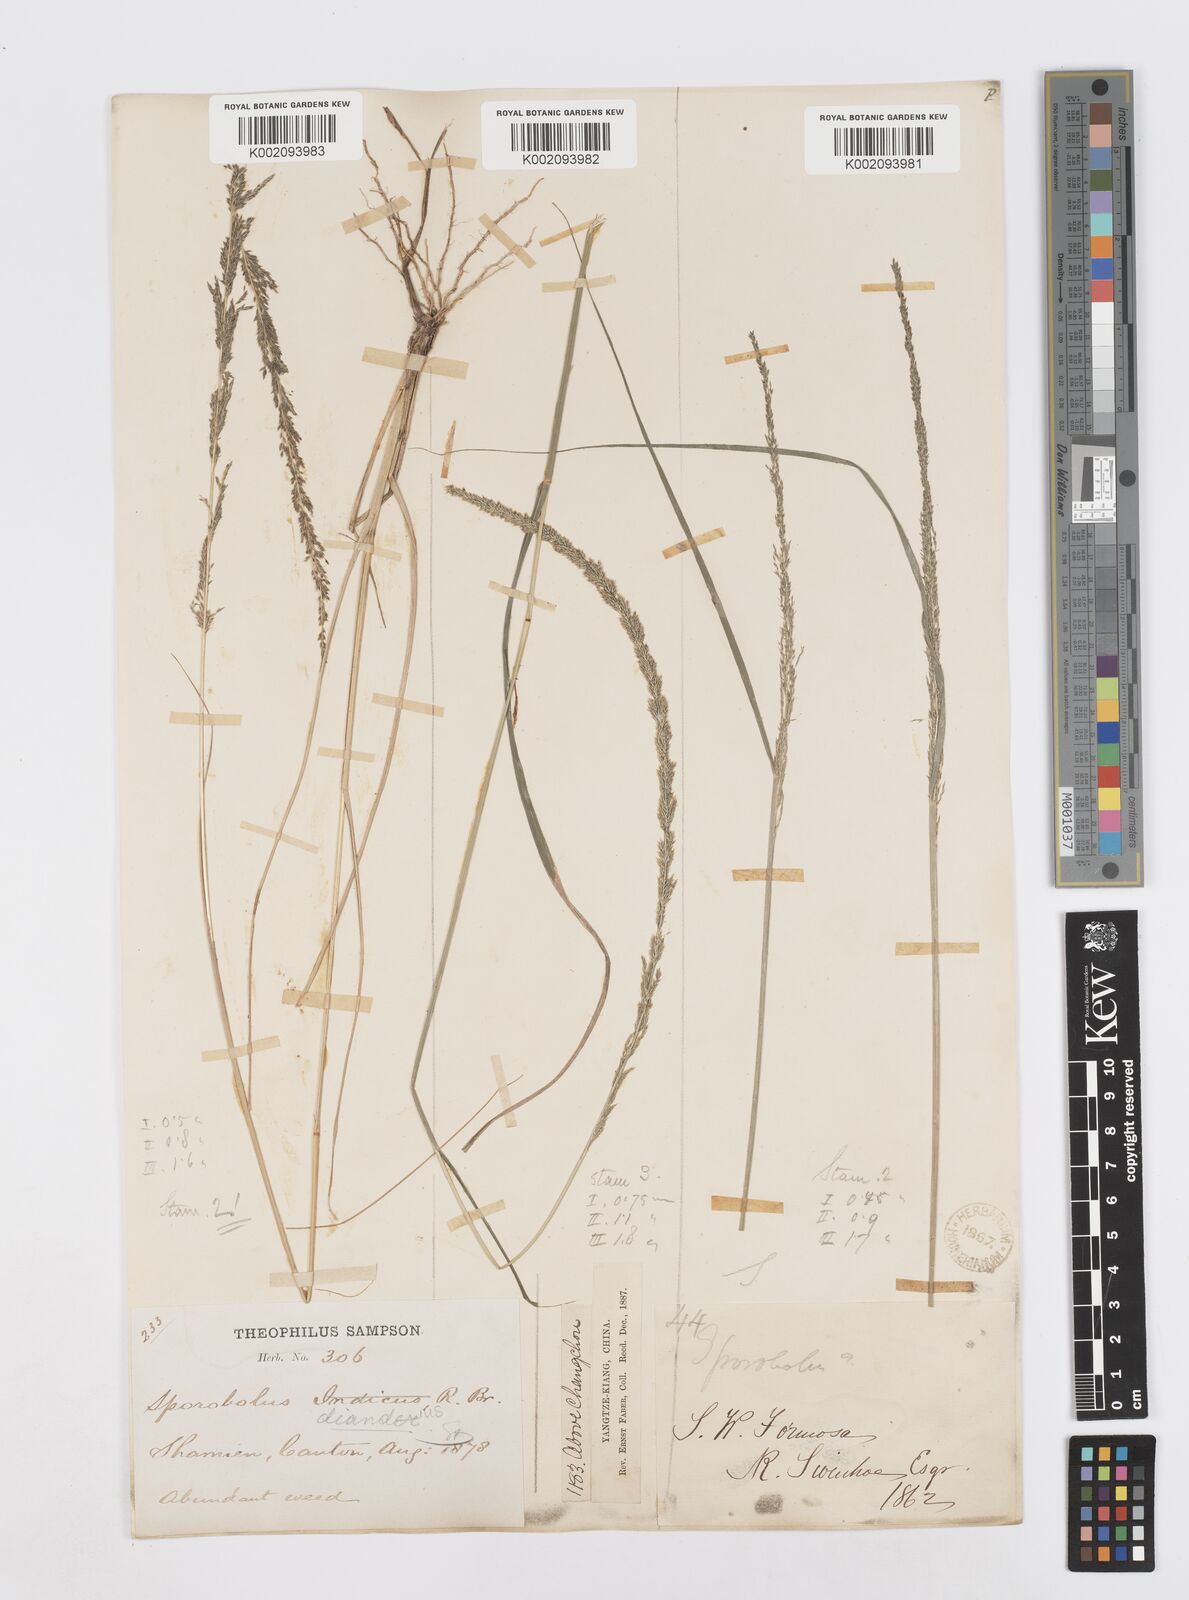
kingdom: Plantae
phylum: Tracheophyta
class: Liliopsida
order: Poales
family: Poaceae
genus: Sporobolus
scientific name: Sporobolus diandrus
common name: Tussock dropseed
